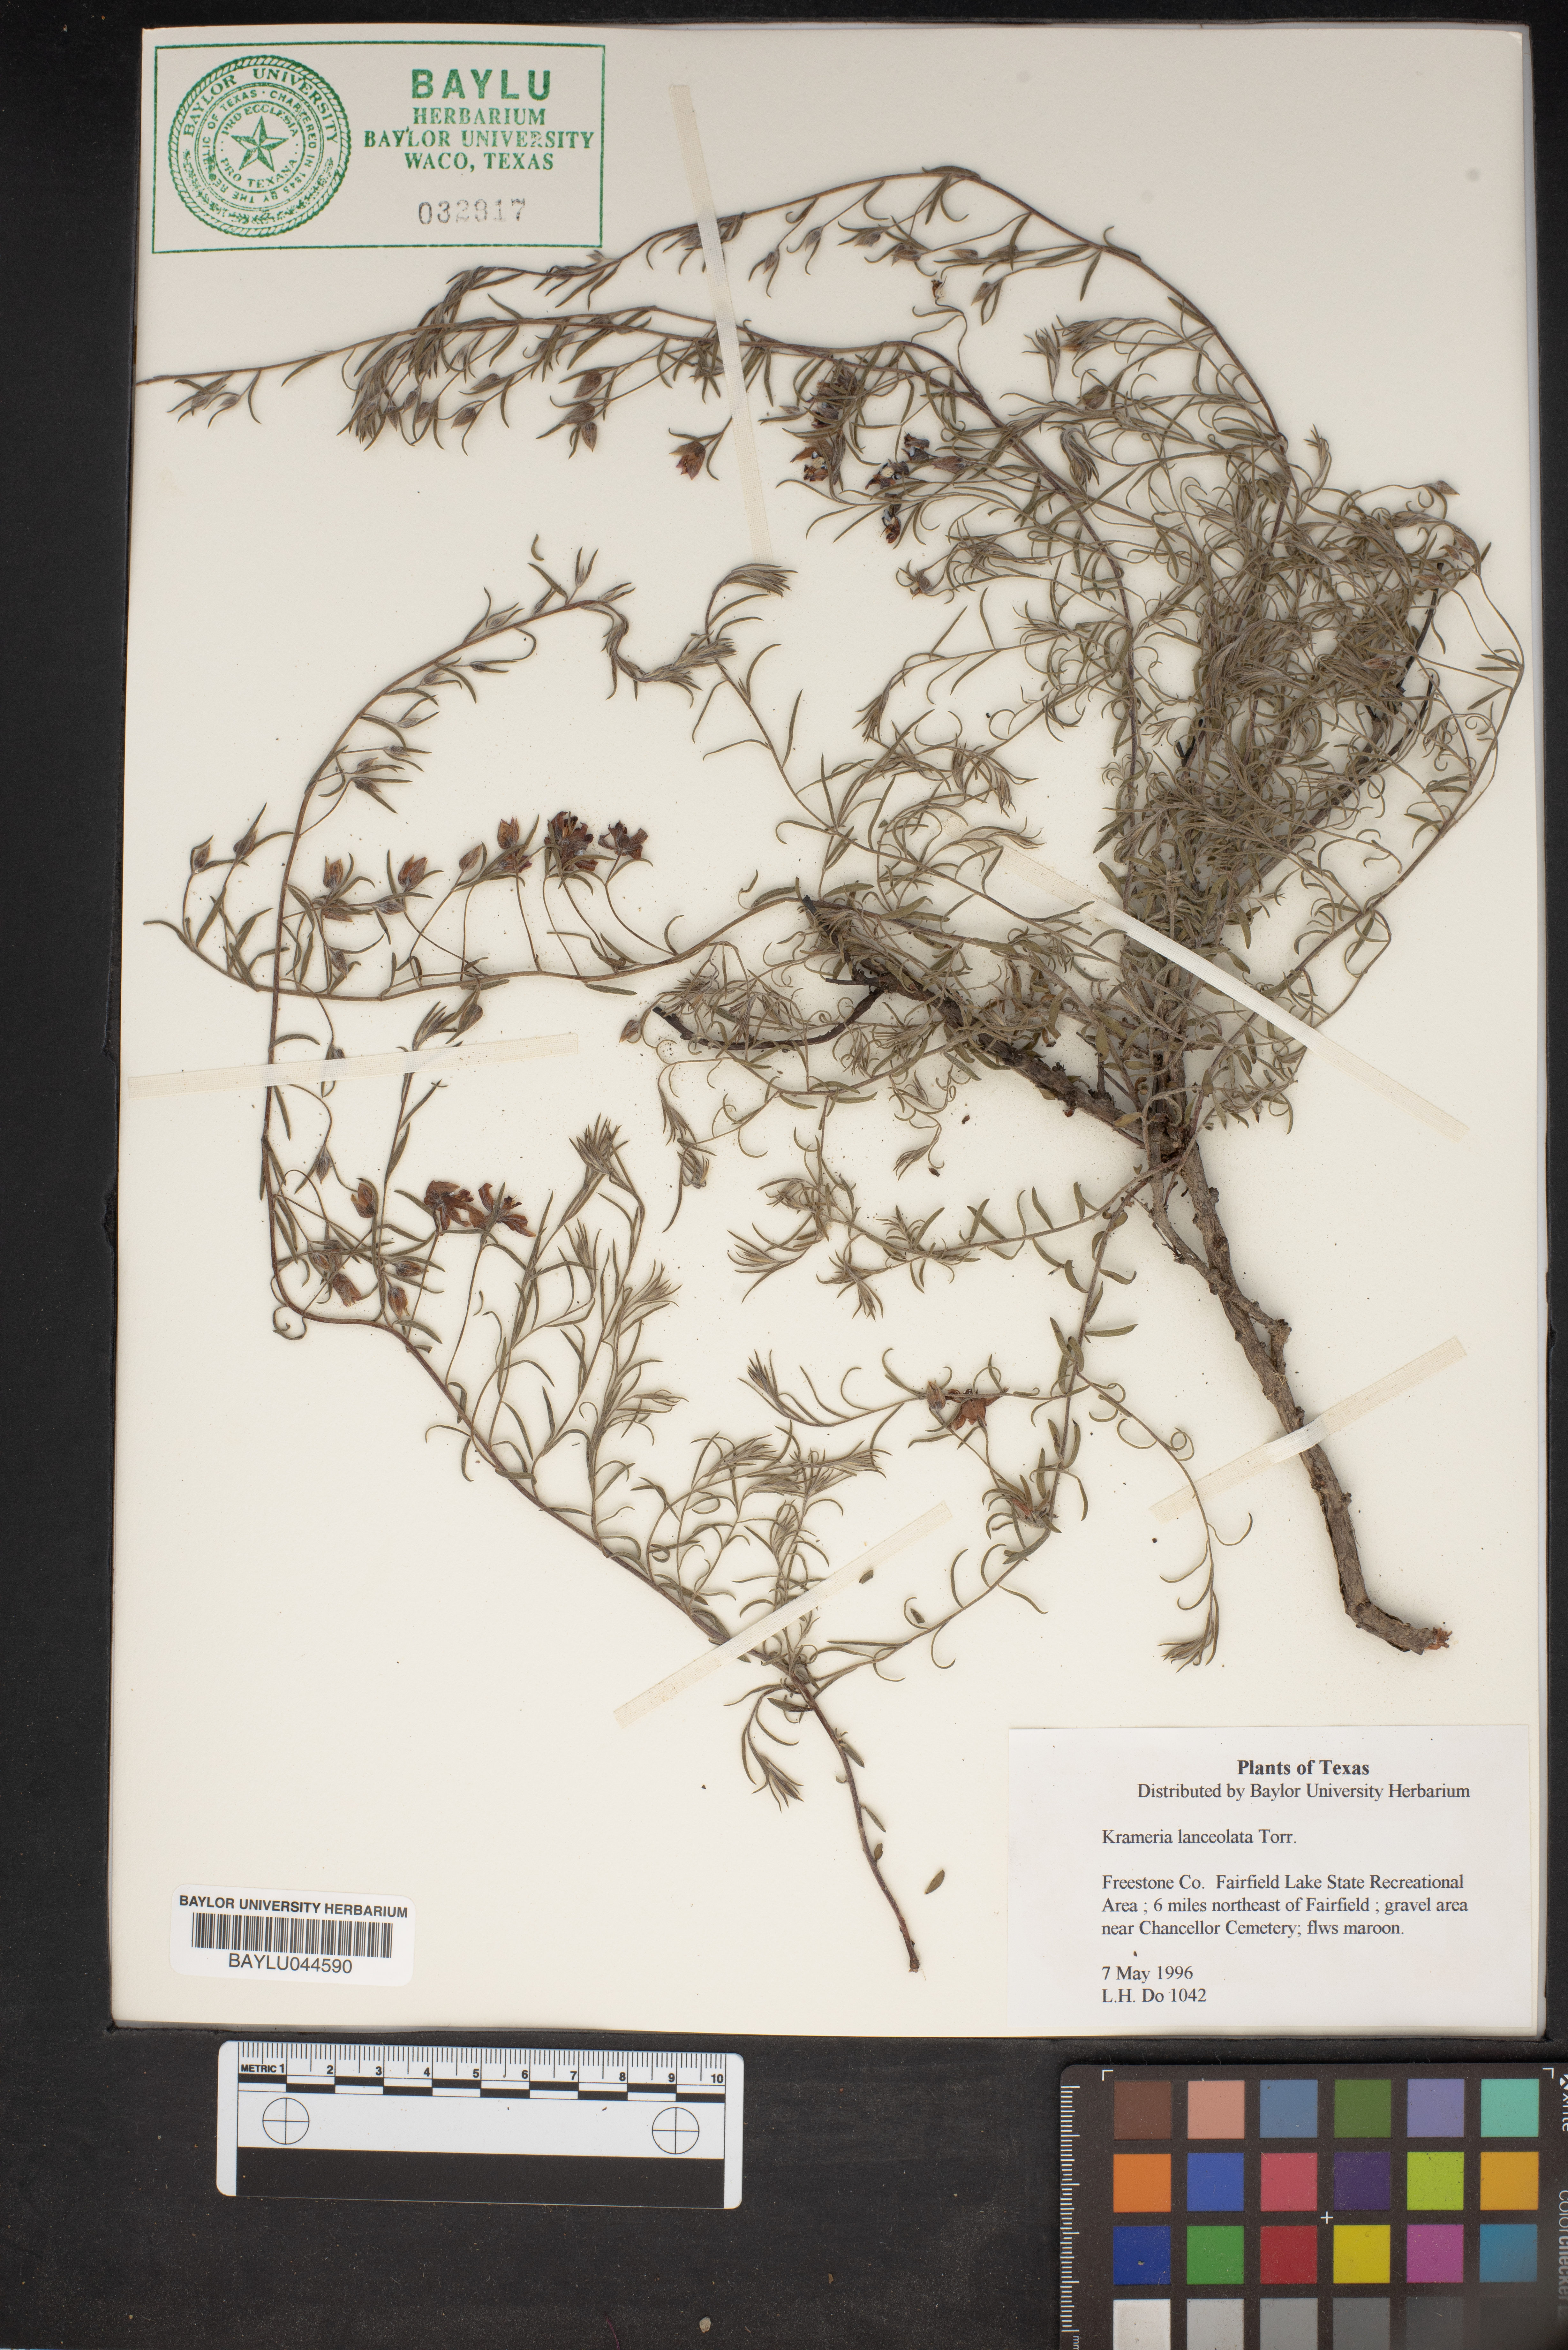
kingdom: Plantae
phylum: Tracheophyta
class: Magnoliopsida
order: Zygophyllales
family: Krameriaceae
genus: Krameria
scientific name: Krameria lanceolata
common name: Ratany
